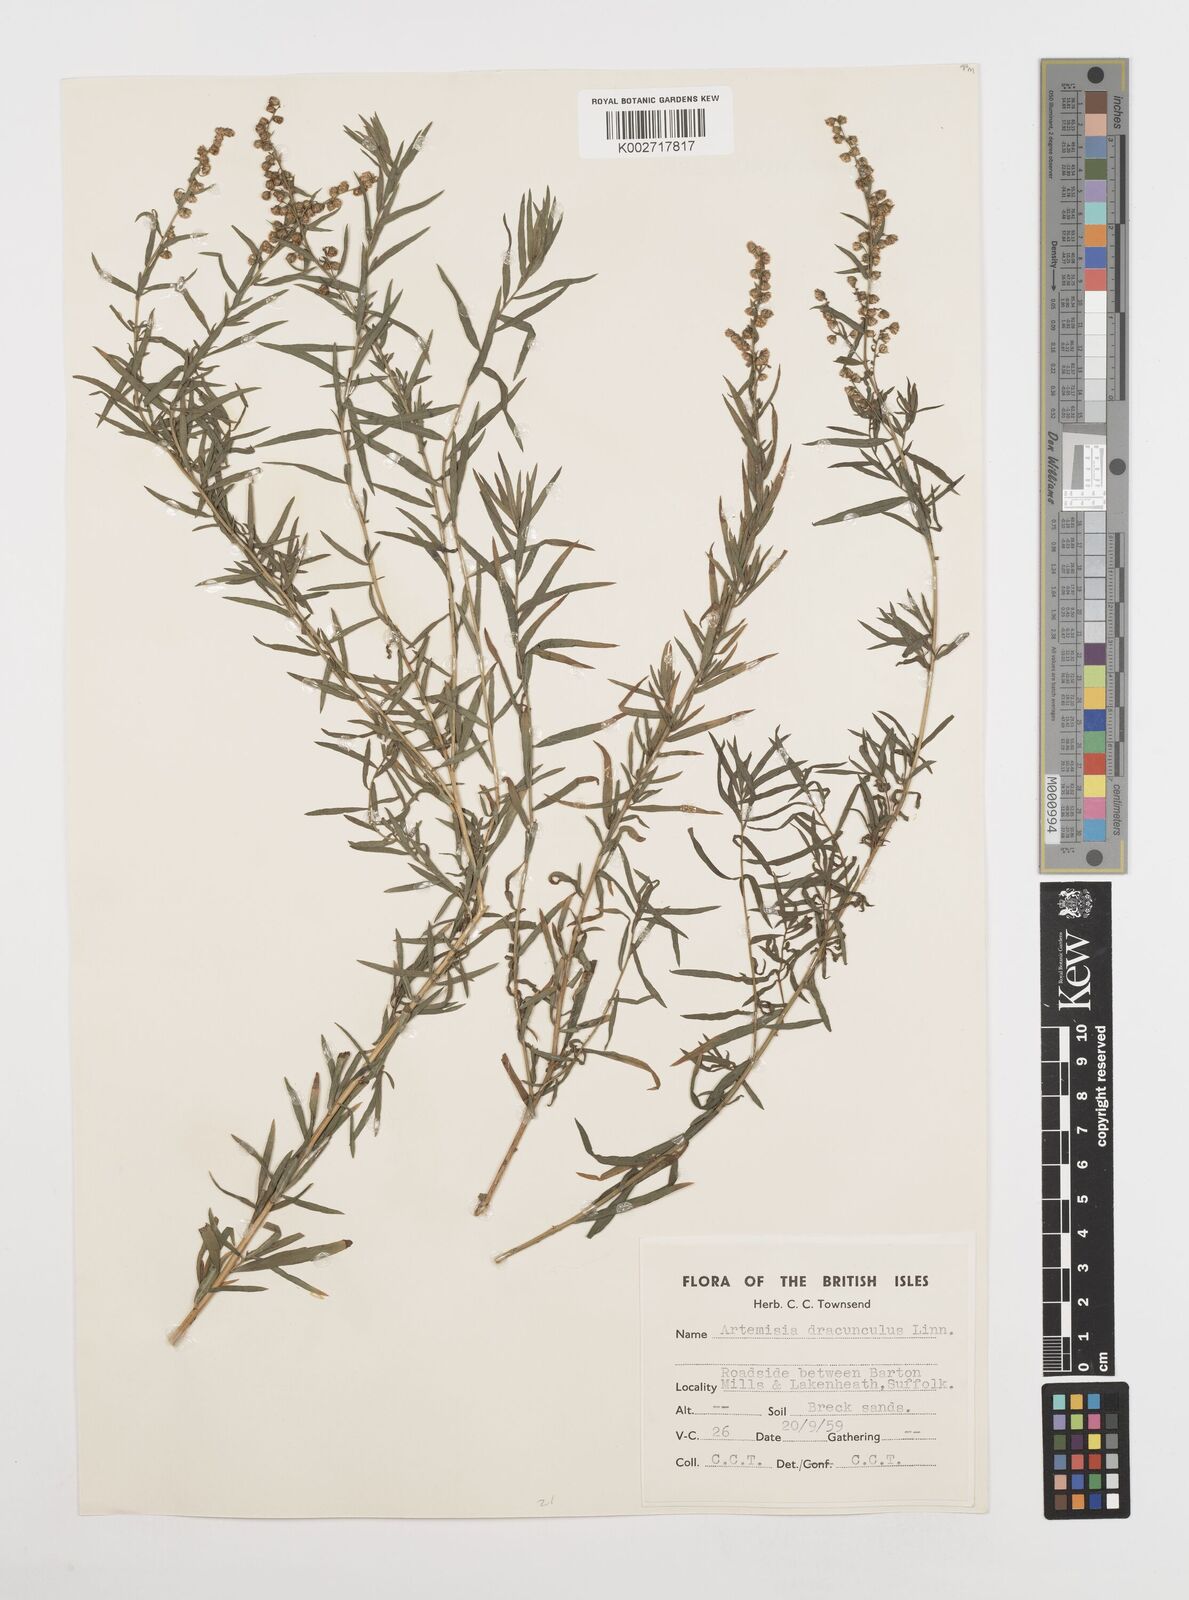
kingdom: Plantae
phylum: Tracheophyta
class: Magnoliopsida
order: Asterales
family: Asteraceae
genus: Artemisia
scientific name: Artemisia dracunculus
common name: Tarragon
